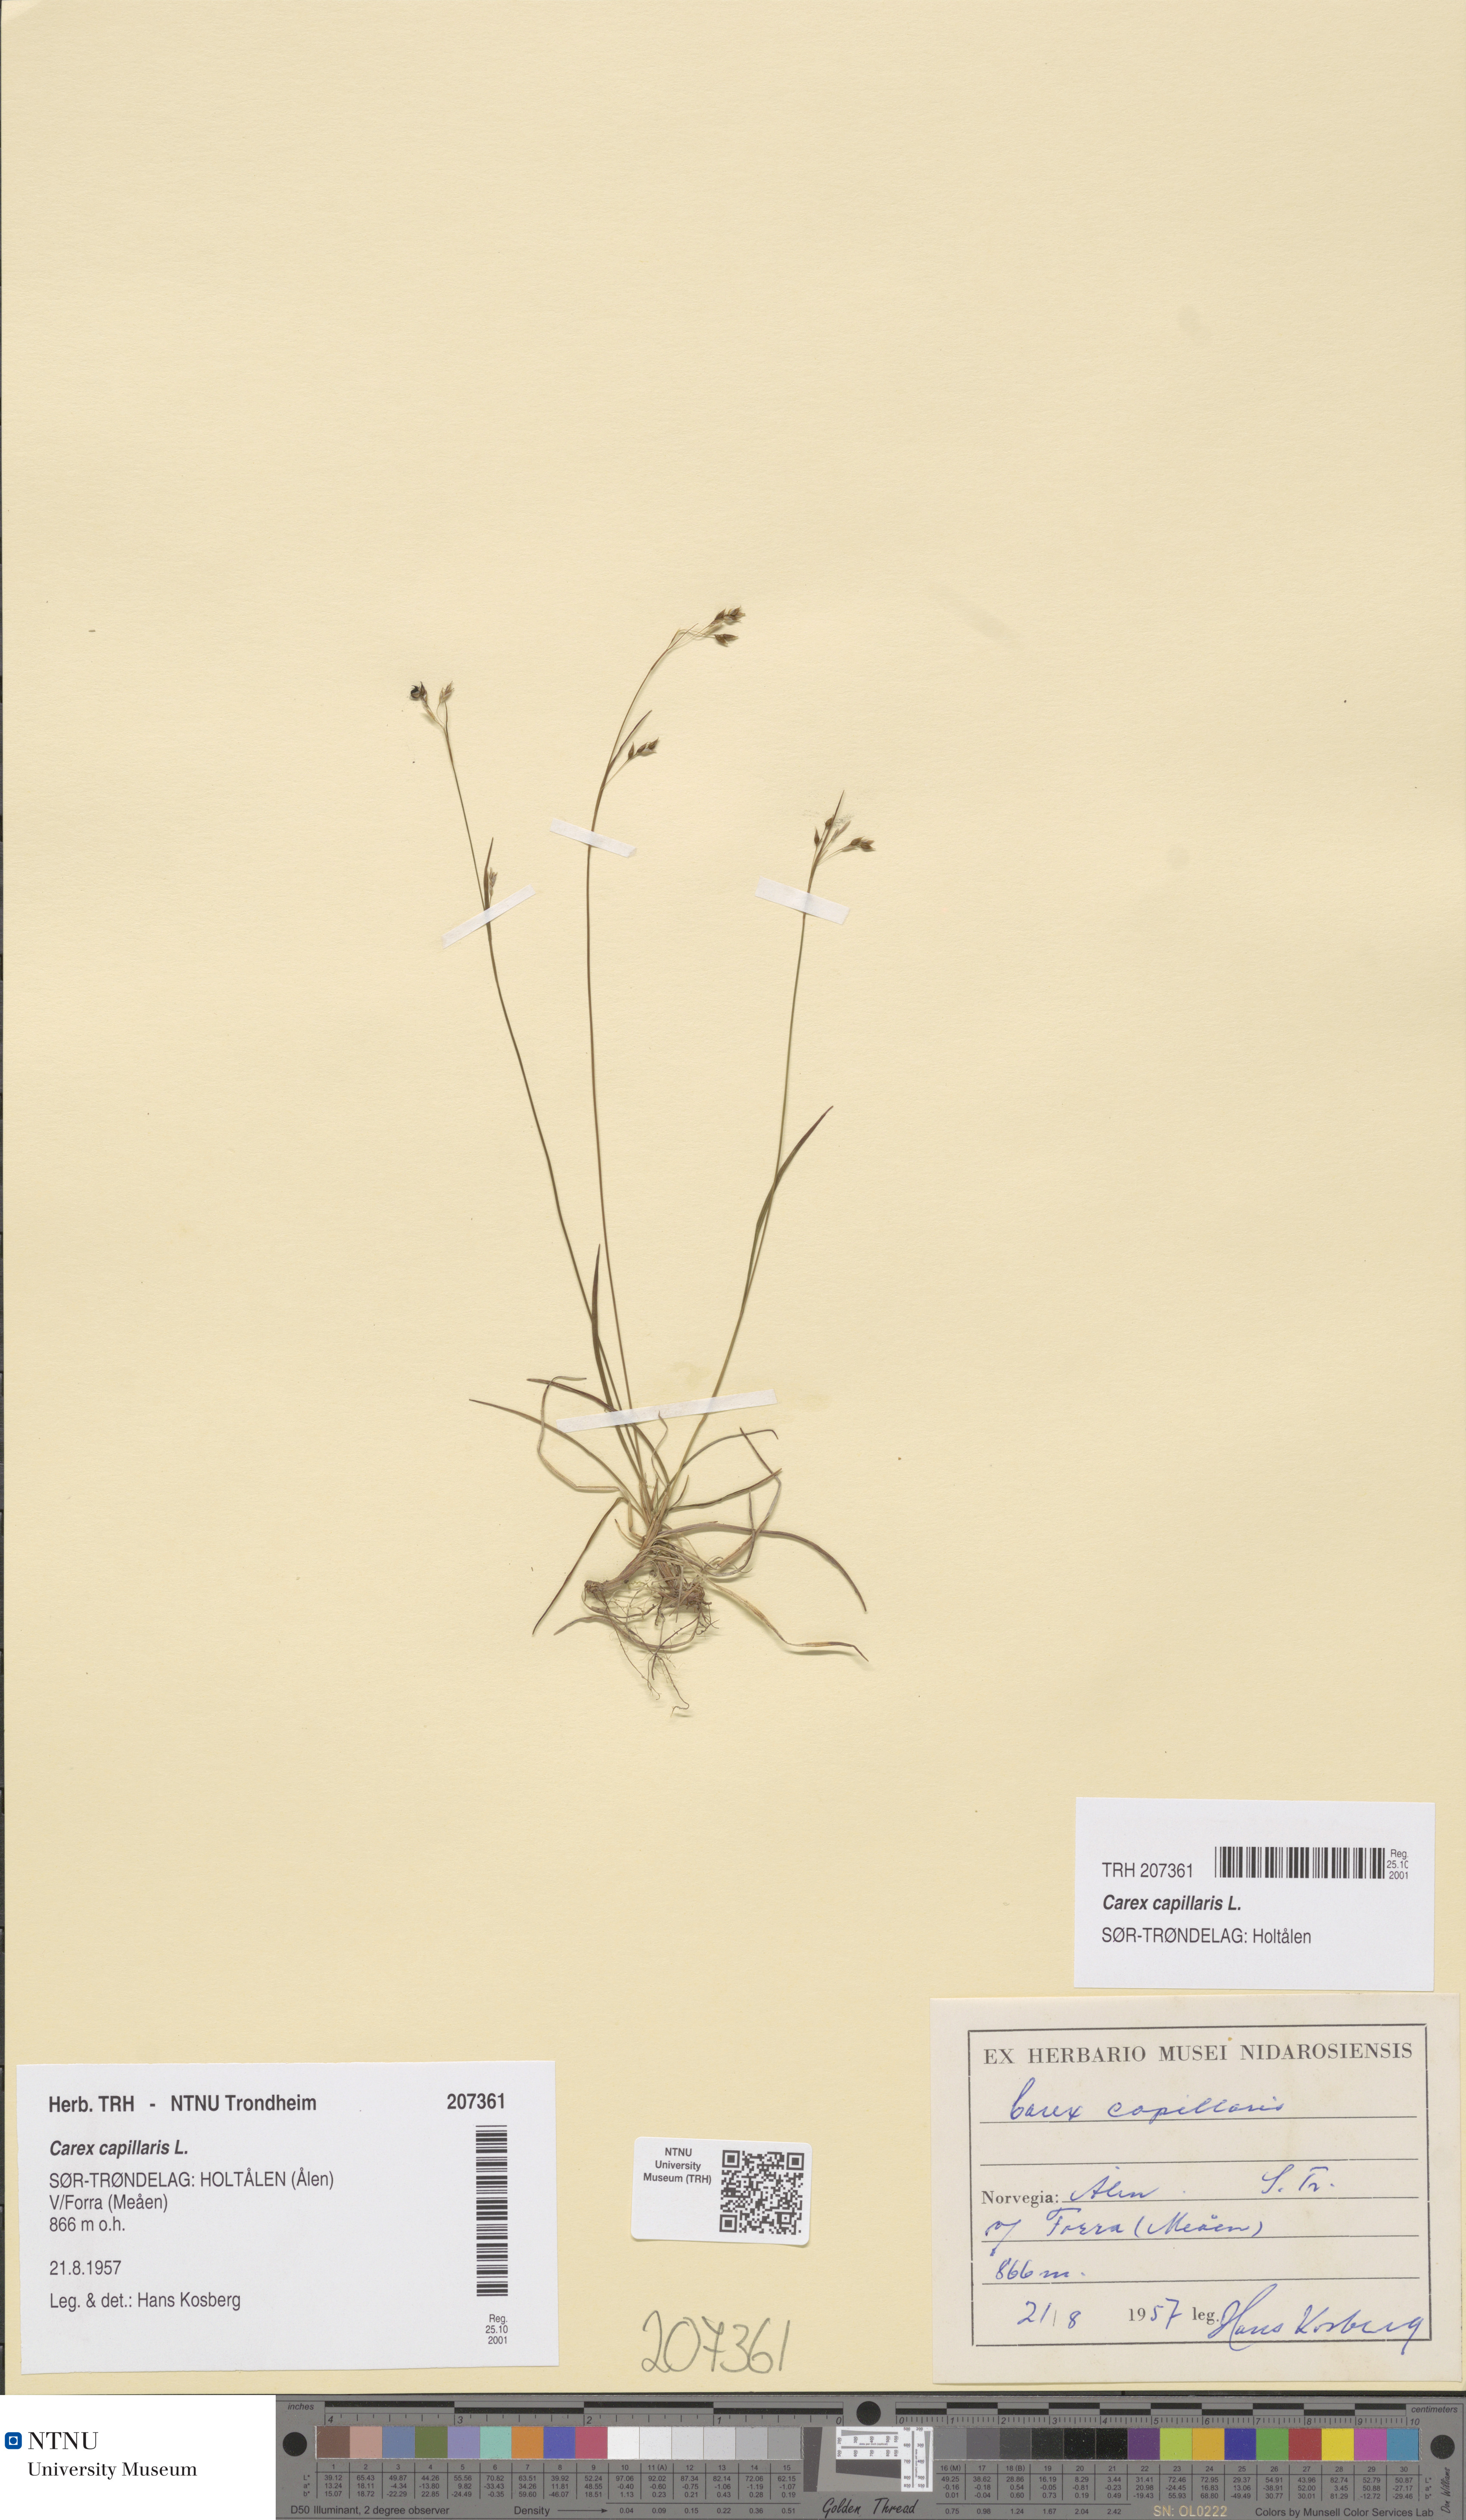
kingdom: Plantae
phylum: Tracheophyta
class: Liliopsida
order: Poales
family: Cyperaceae
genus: Carex
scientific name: Carex capillaris
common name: Hair sedge
